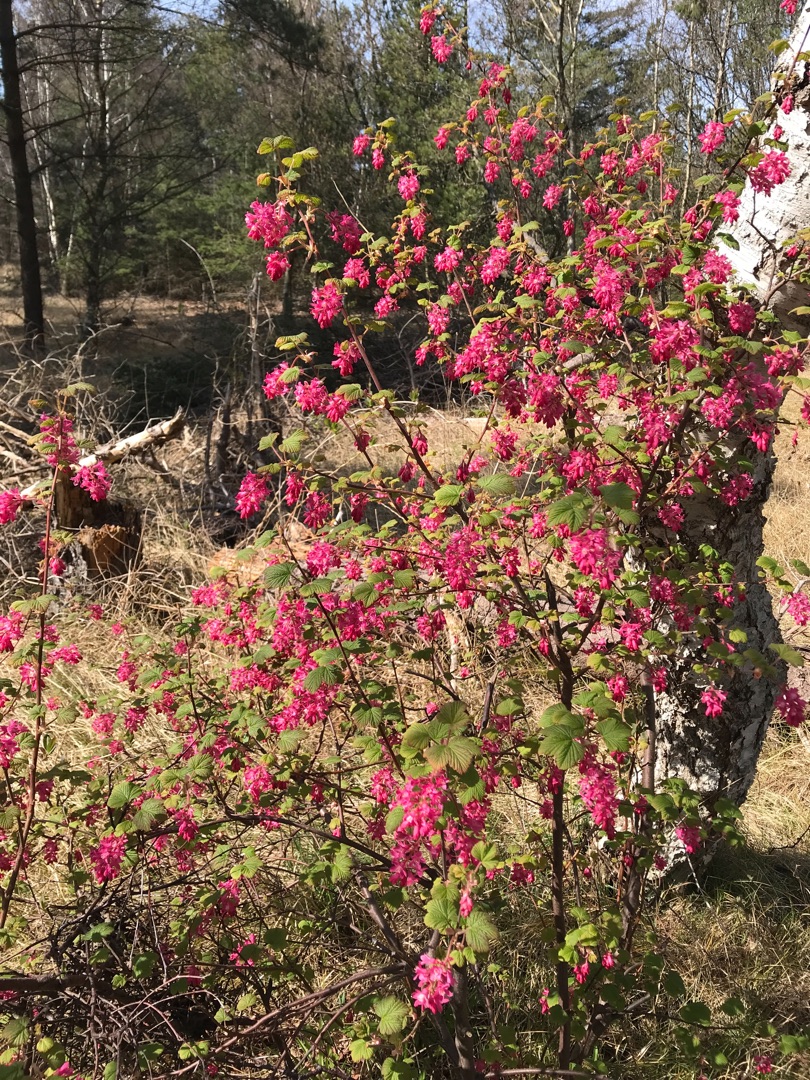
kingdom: Plantae
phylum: Tracheophyta
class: Magnoliopsida
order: Saxifragales
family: Grossulariaceae
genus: Ribes
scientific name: Ribes sanguineum
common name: Blod-ribs
